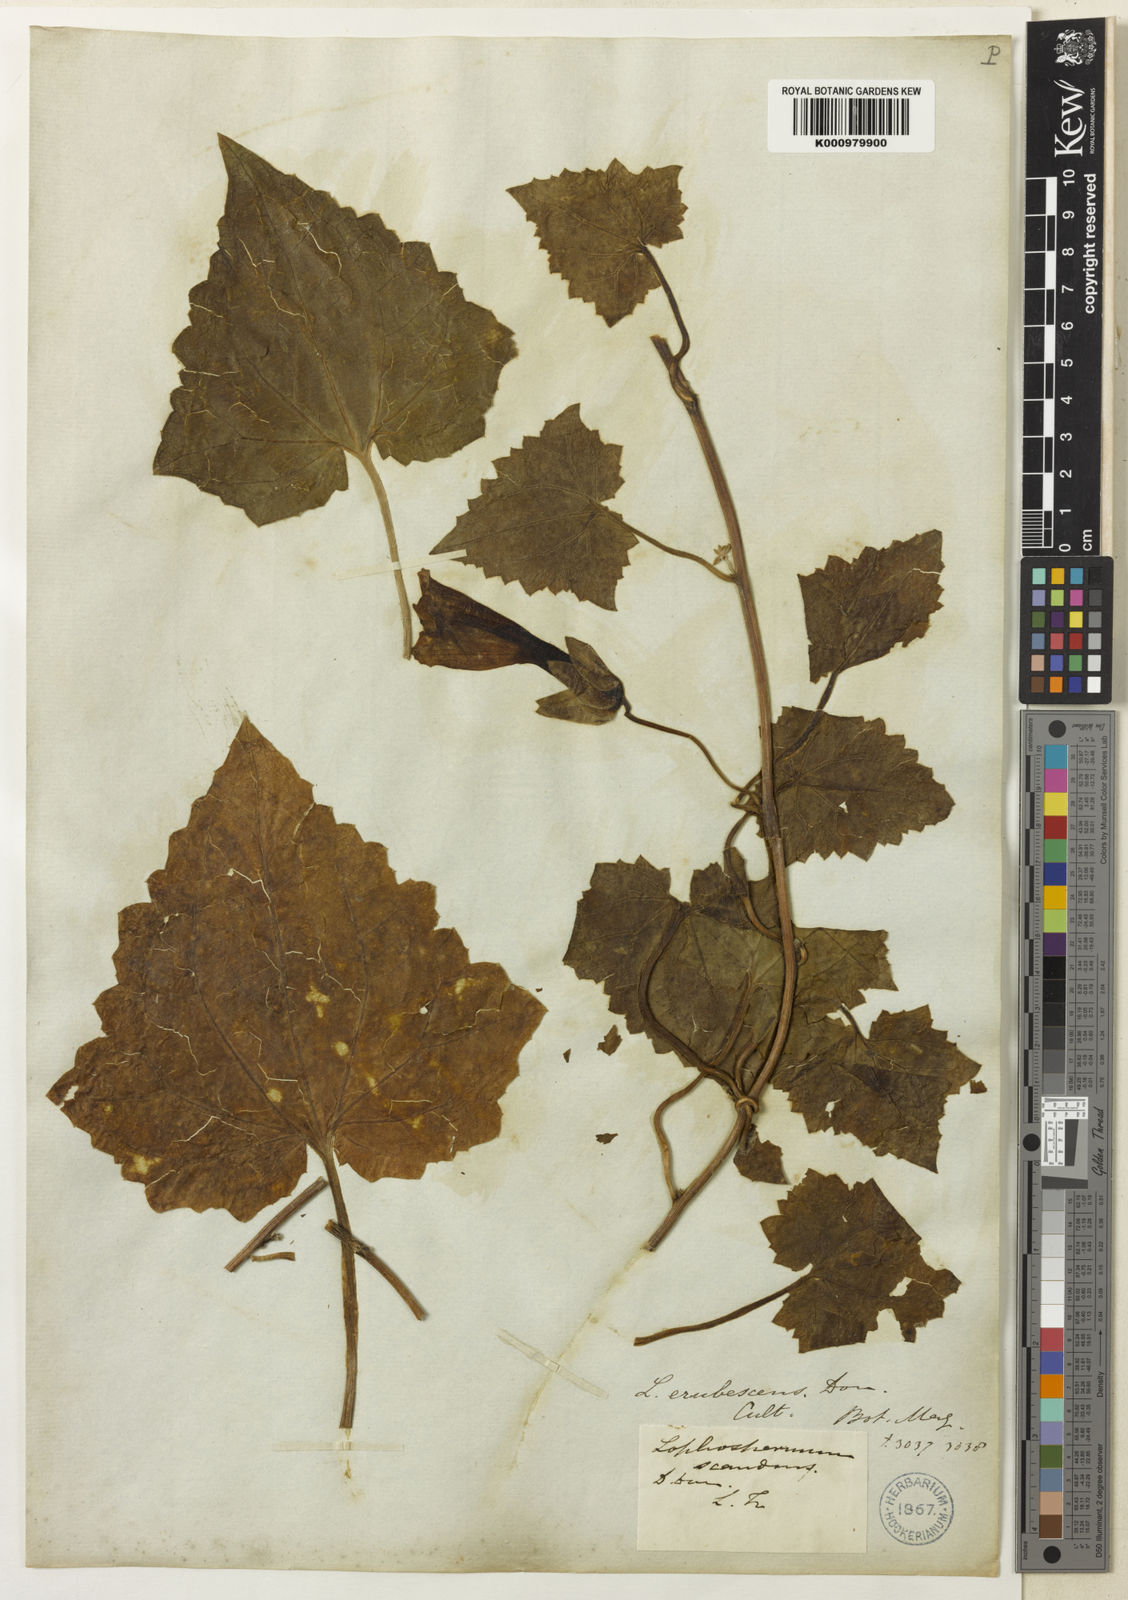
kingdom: Plantae
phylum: Tracheophyta
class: Magnoliopsida
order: Lamiales
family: Plantaginaceae
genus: Lophospermum
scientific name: Lophospermum erubescens
